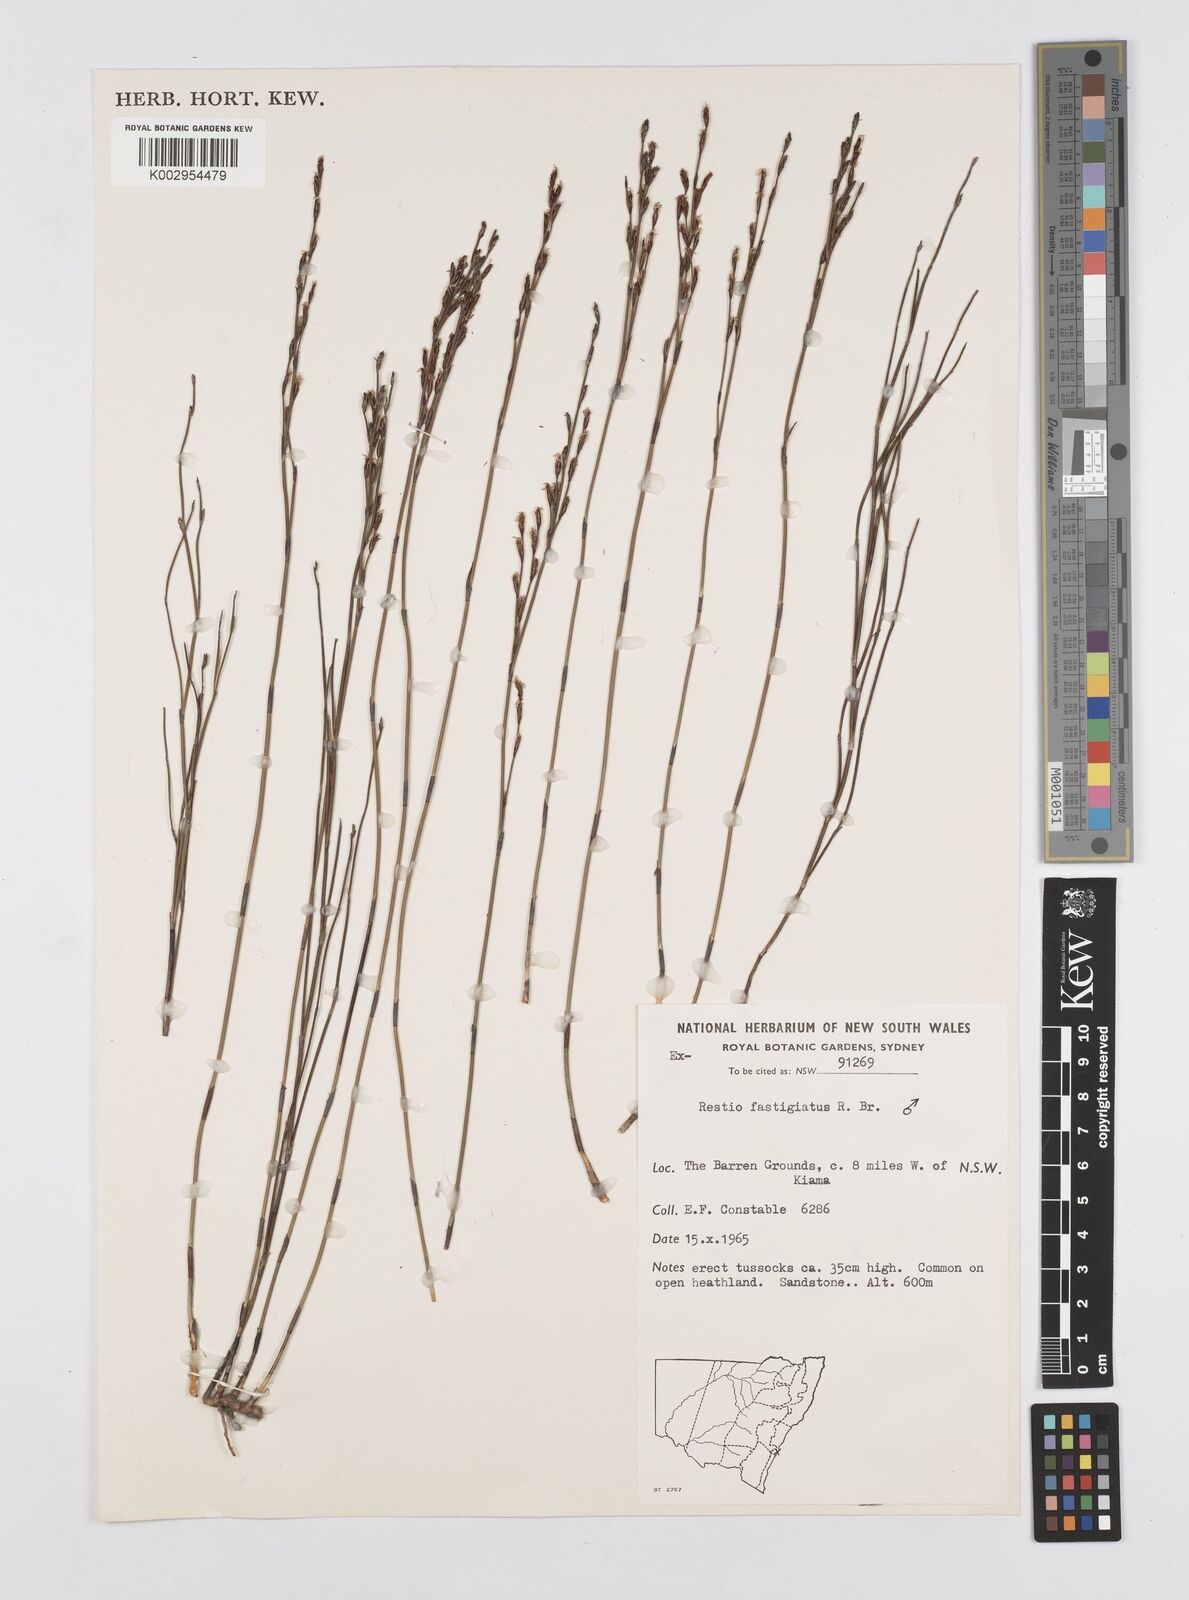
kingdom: Plantae
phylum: Tracheophyta
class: Liliopsida
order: Poales
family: Restionaceae
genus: Chordifex
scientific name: Chordifex fastigiatus
